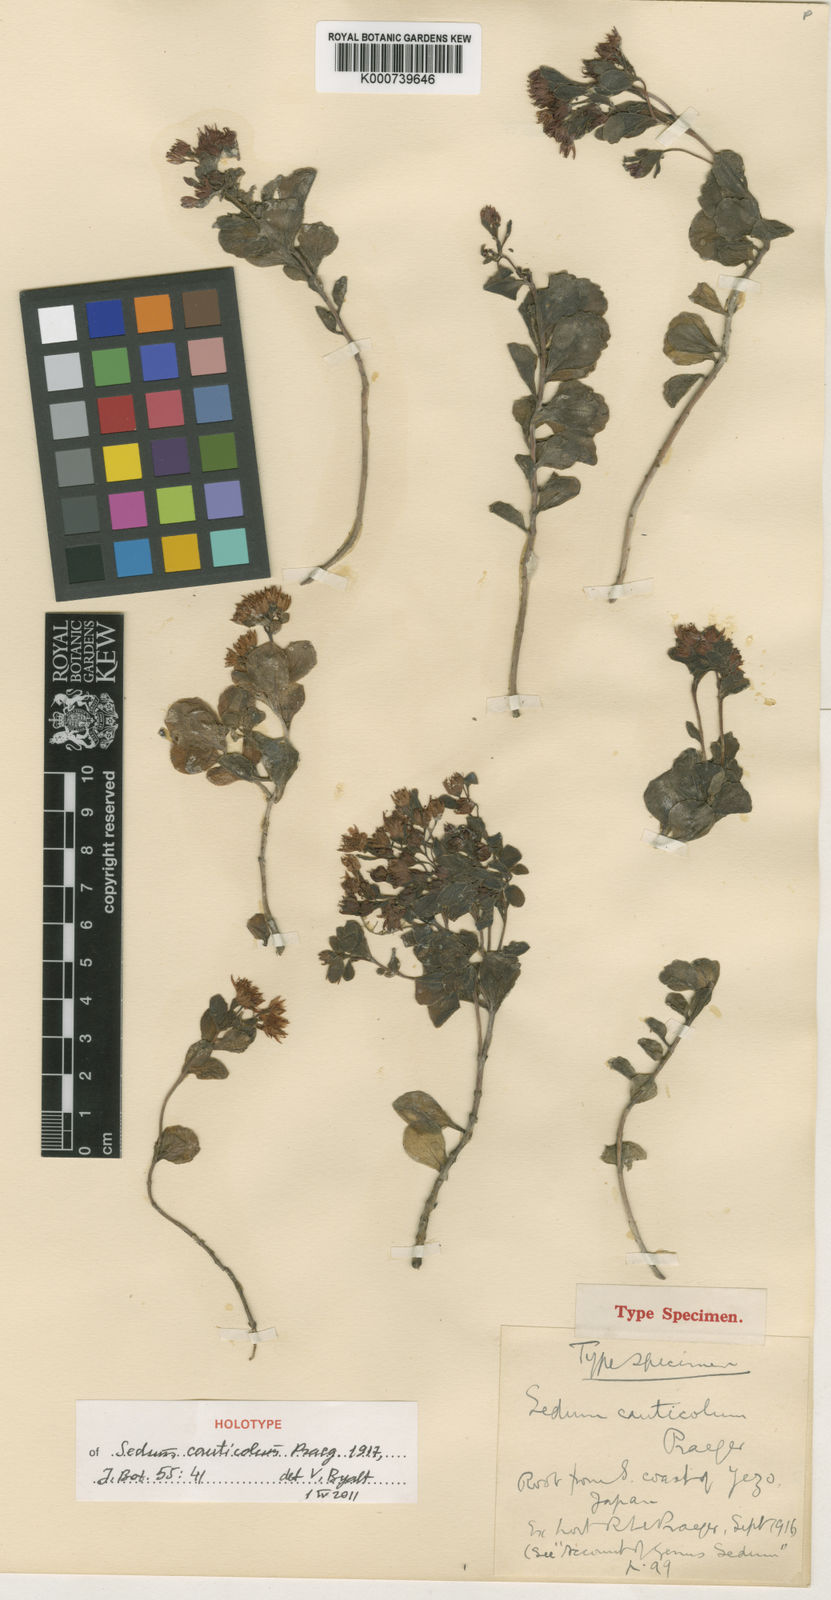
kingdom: Plantae
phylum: Tracheophyta
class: Magnoliopsida
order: Saxifragales
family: Crassulaceae
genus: Hylotelephium
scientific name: Hylotelephium cauticola
